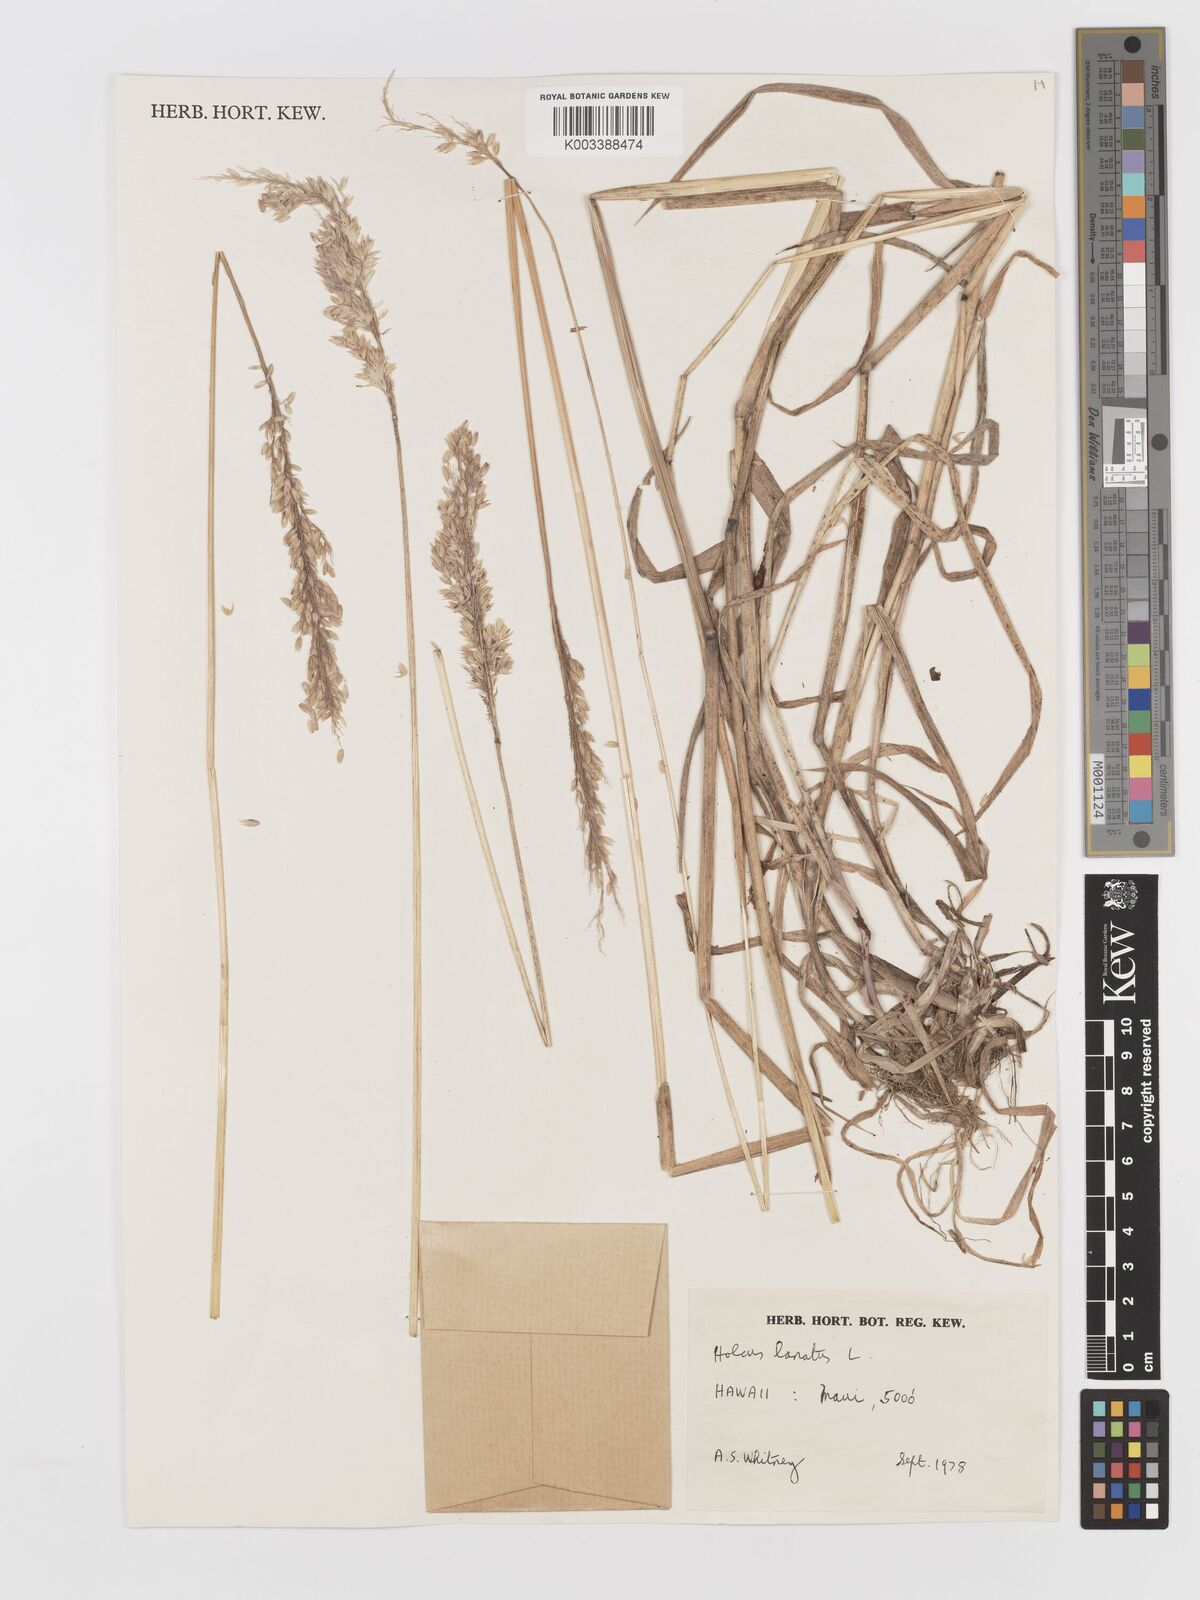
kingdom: Plantae
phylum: Tracheophyta
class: Liliopsida
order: Poales
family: Poaceae
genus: Holcus
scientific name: Holcus lanatus
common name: Yorkshire-fog
